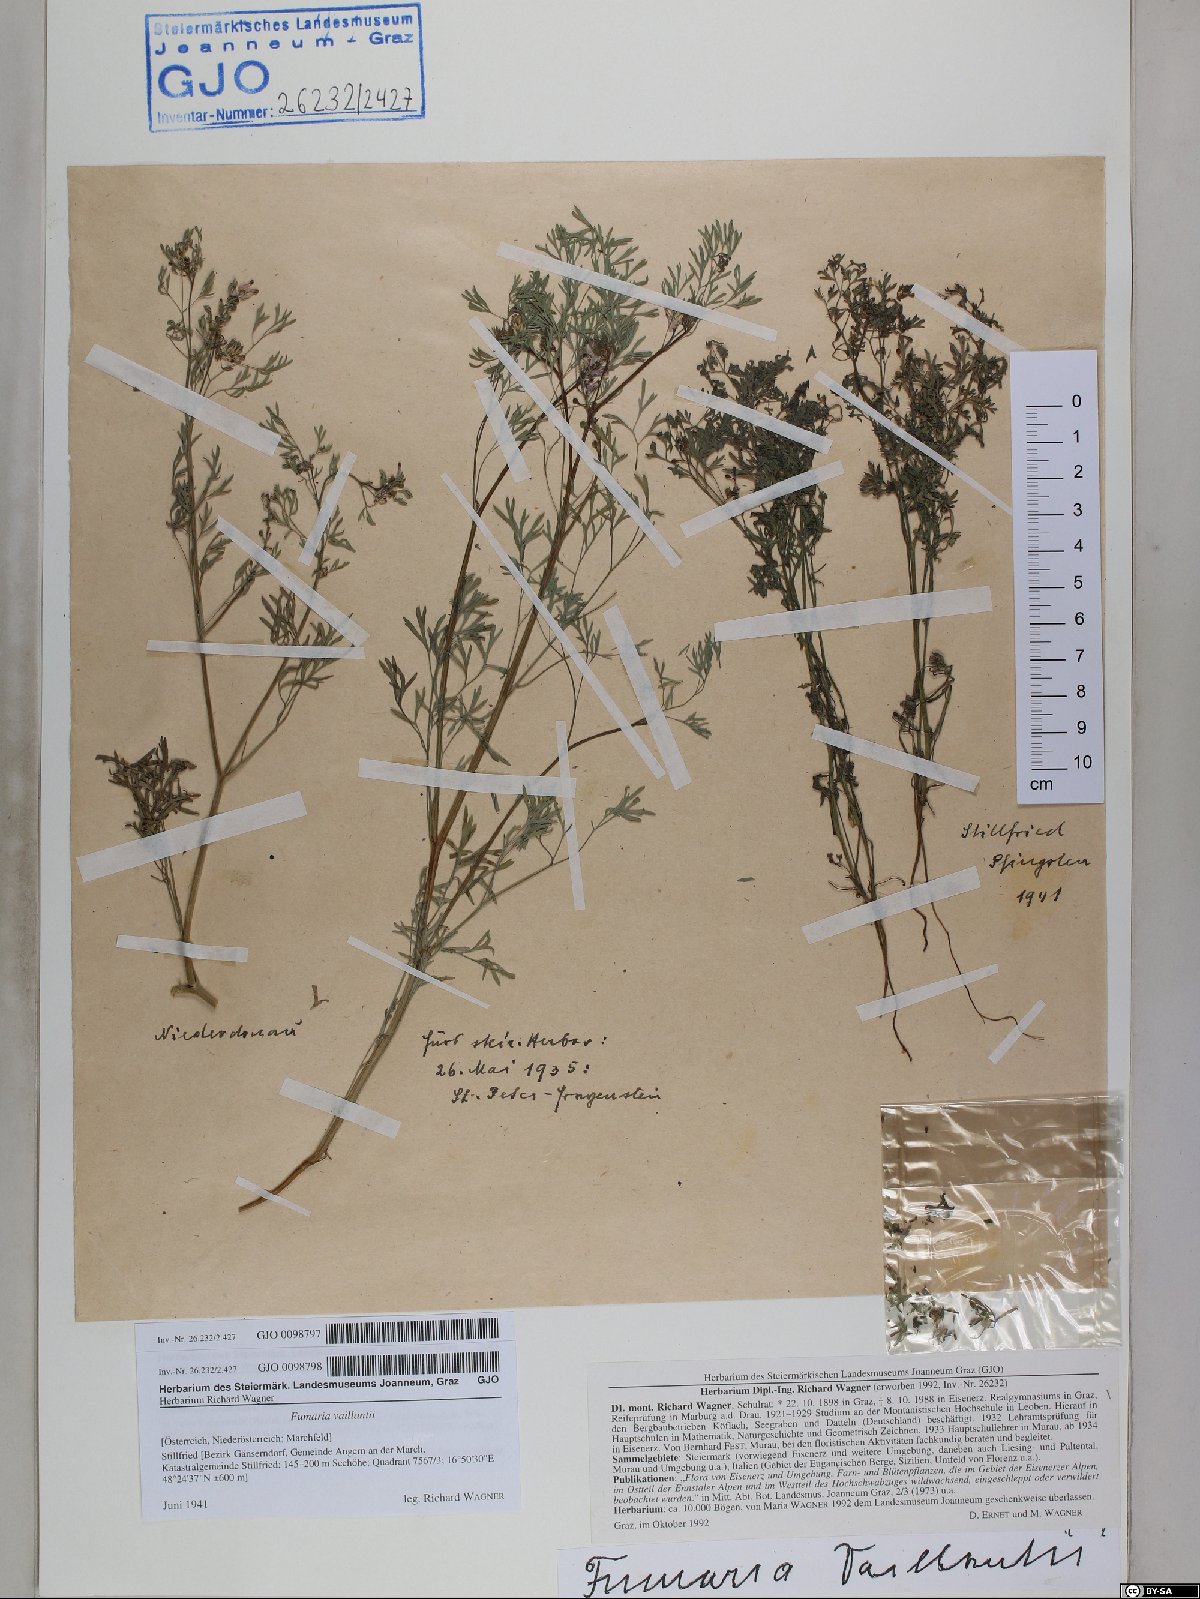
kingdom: Plantae
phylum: Tracheophyta
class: Magnoliopsida
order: Ranunculales
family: Papaveraceae
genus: Fumaria
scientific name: Fumaria vaillantii
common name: Few-flowered fumitory
